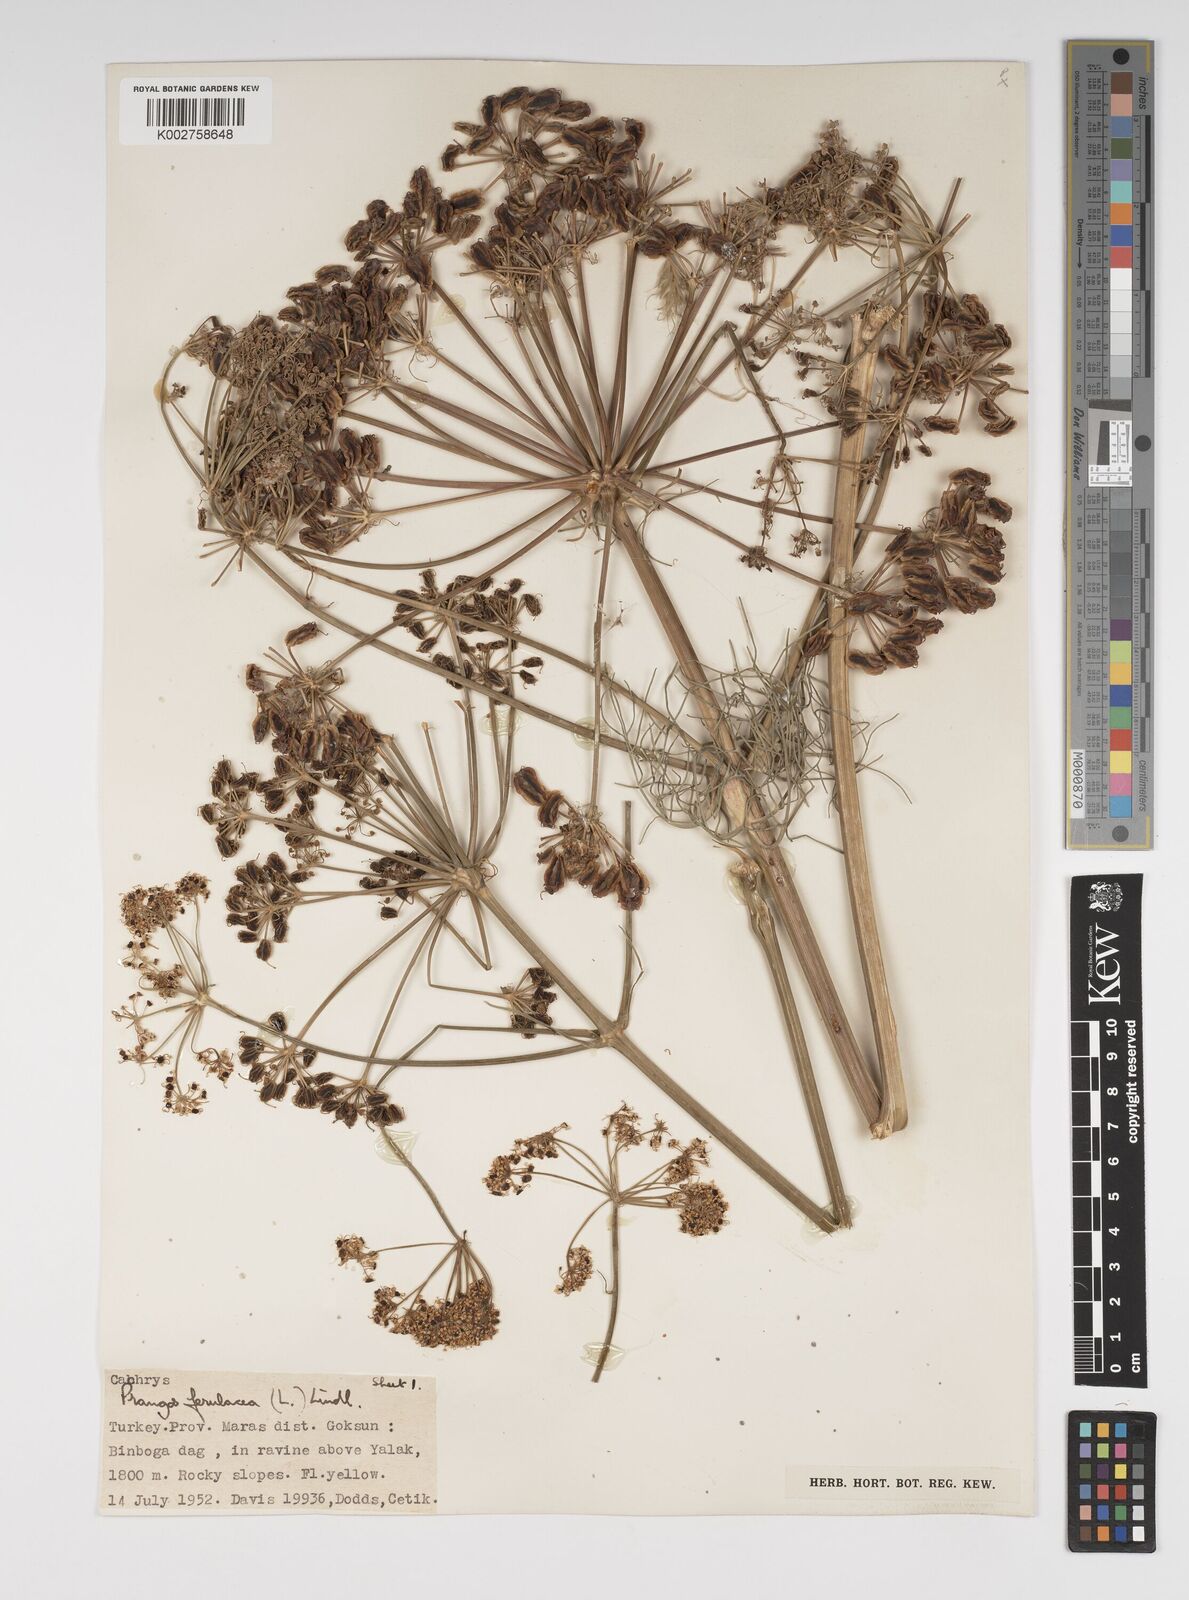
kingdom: Plantae
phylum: Tracheophyta
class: Magnoliopsida
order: Apiales
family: Apiaceae
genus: Prangos
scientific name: Prangos ferulacea
